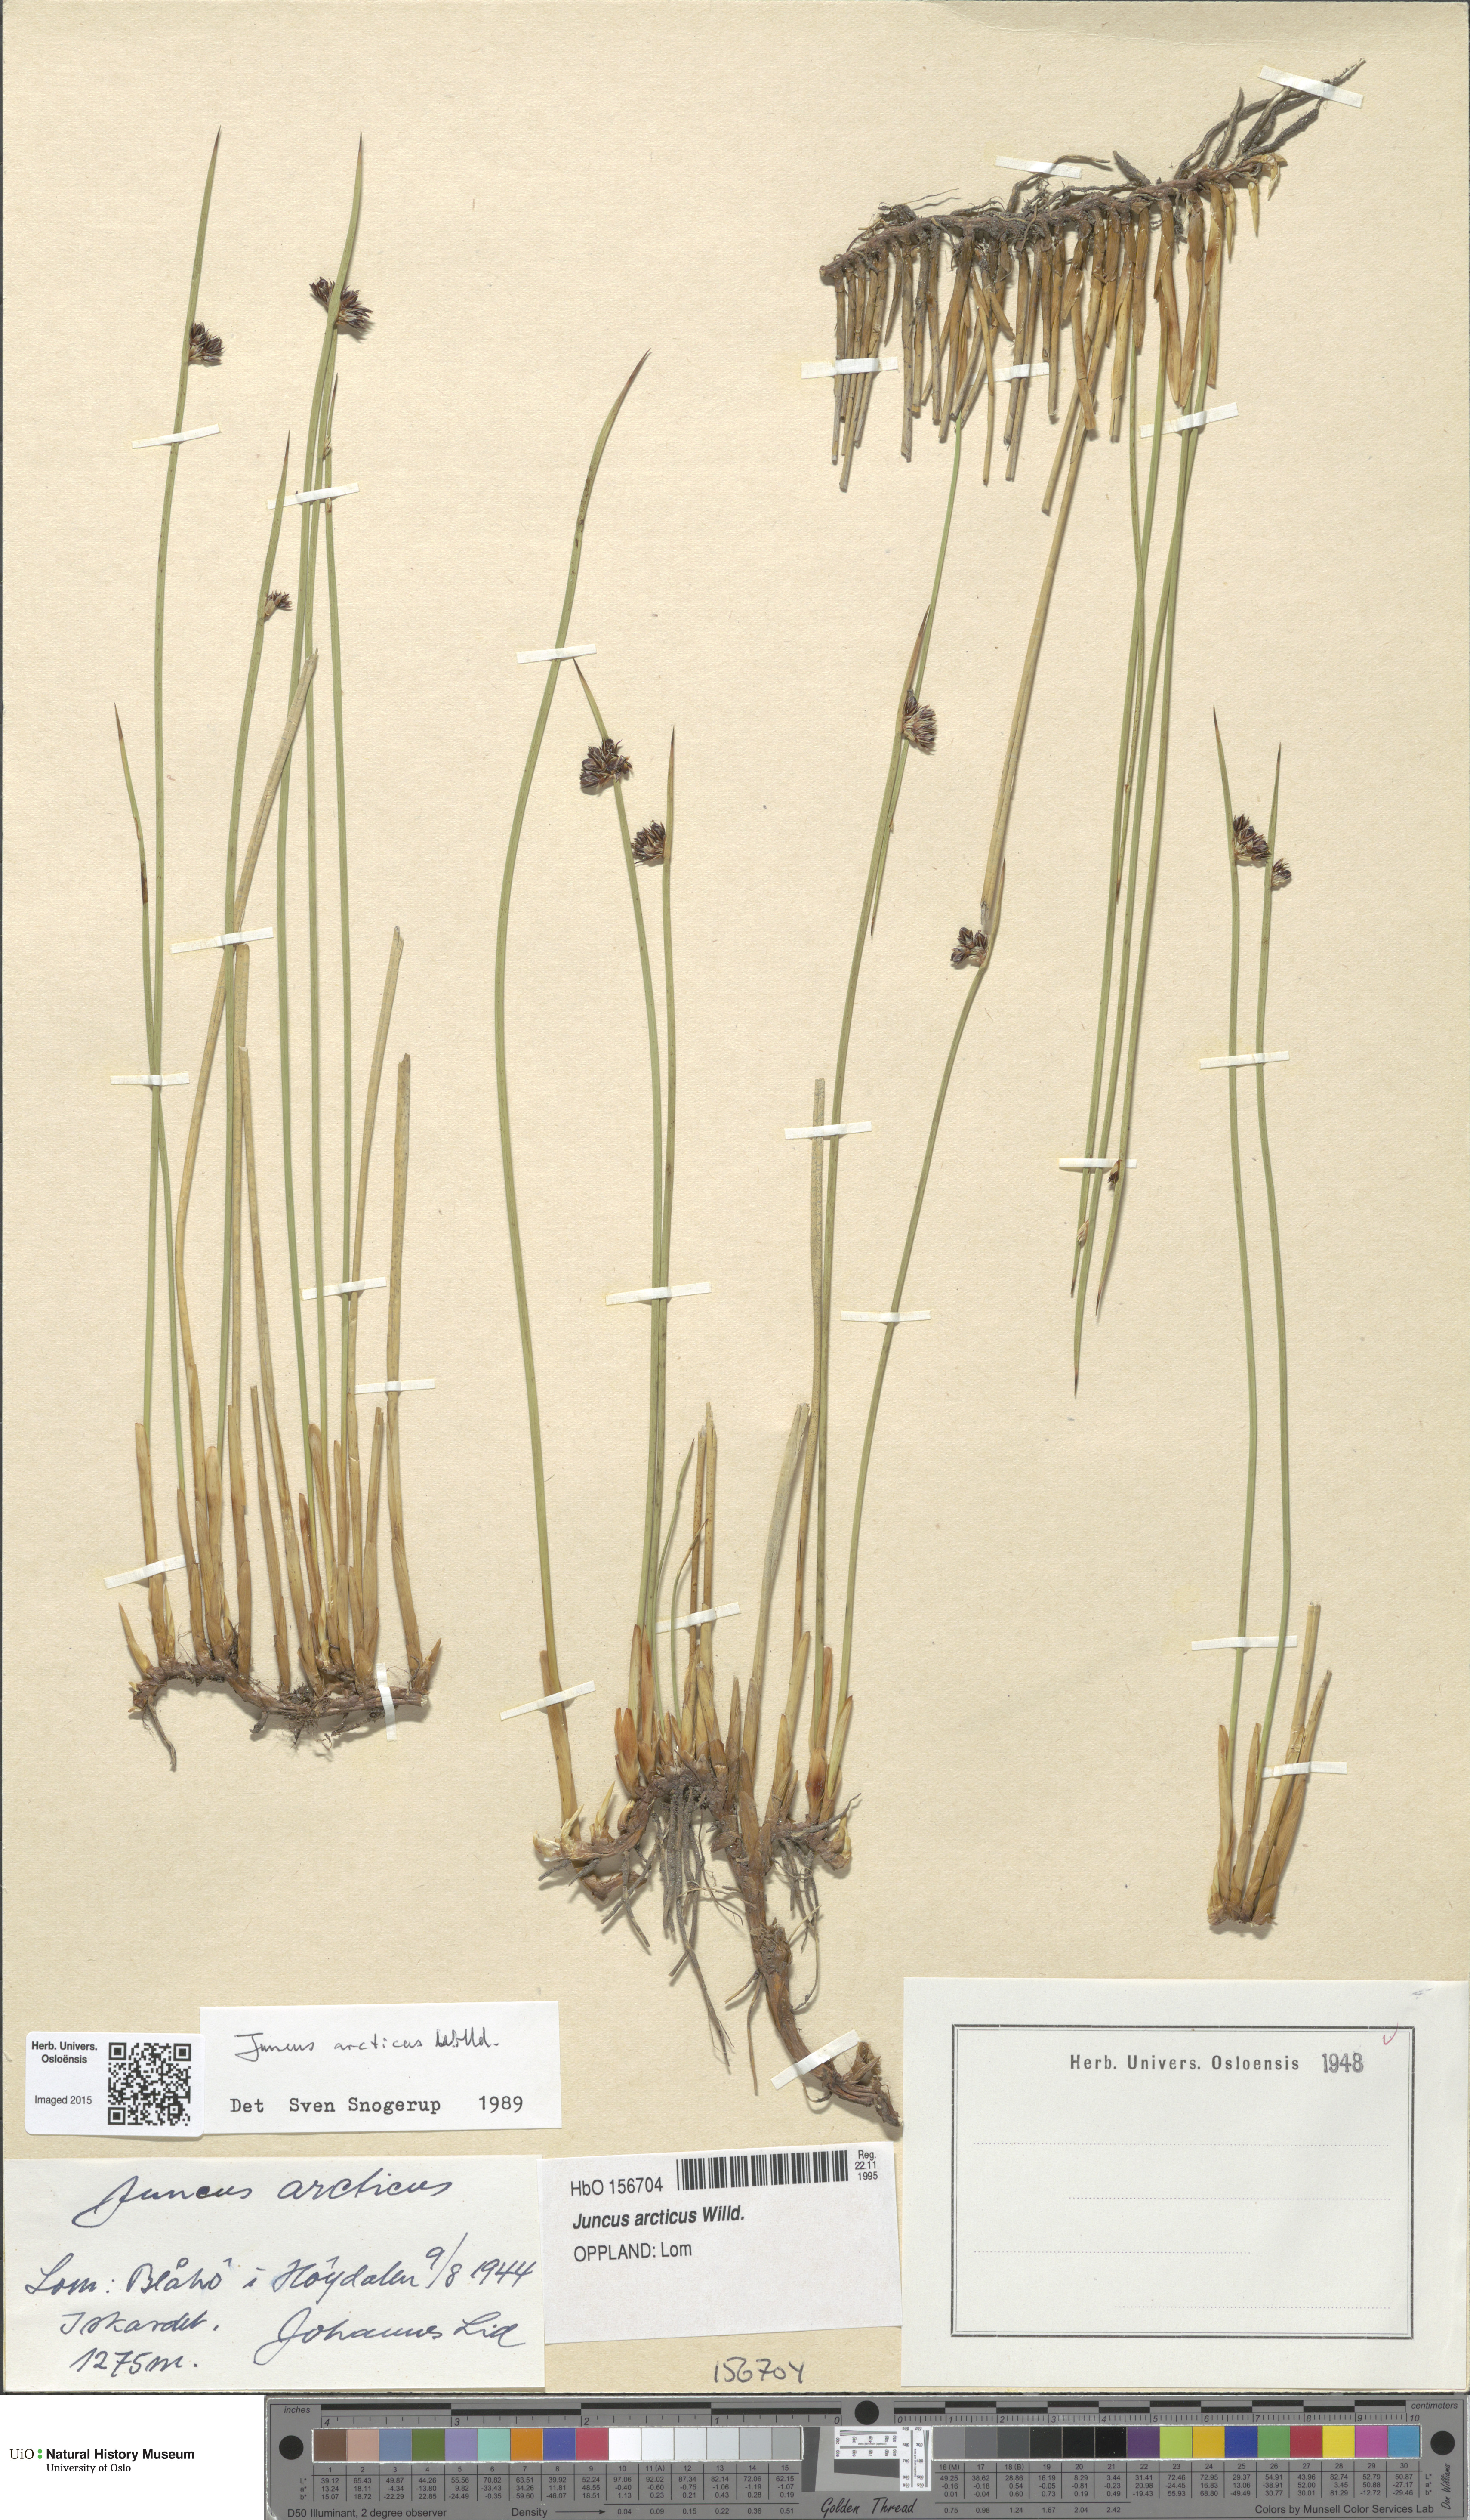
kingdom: Plantae
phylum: Tracheophyta
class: Liliopsida
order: Poales
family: Juncaceae
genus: Juncus
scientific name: Juncus arcticus
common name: Arctic rush
